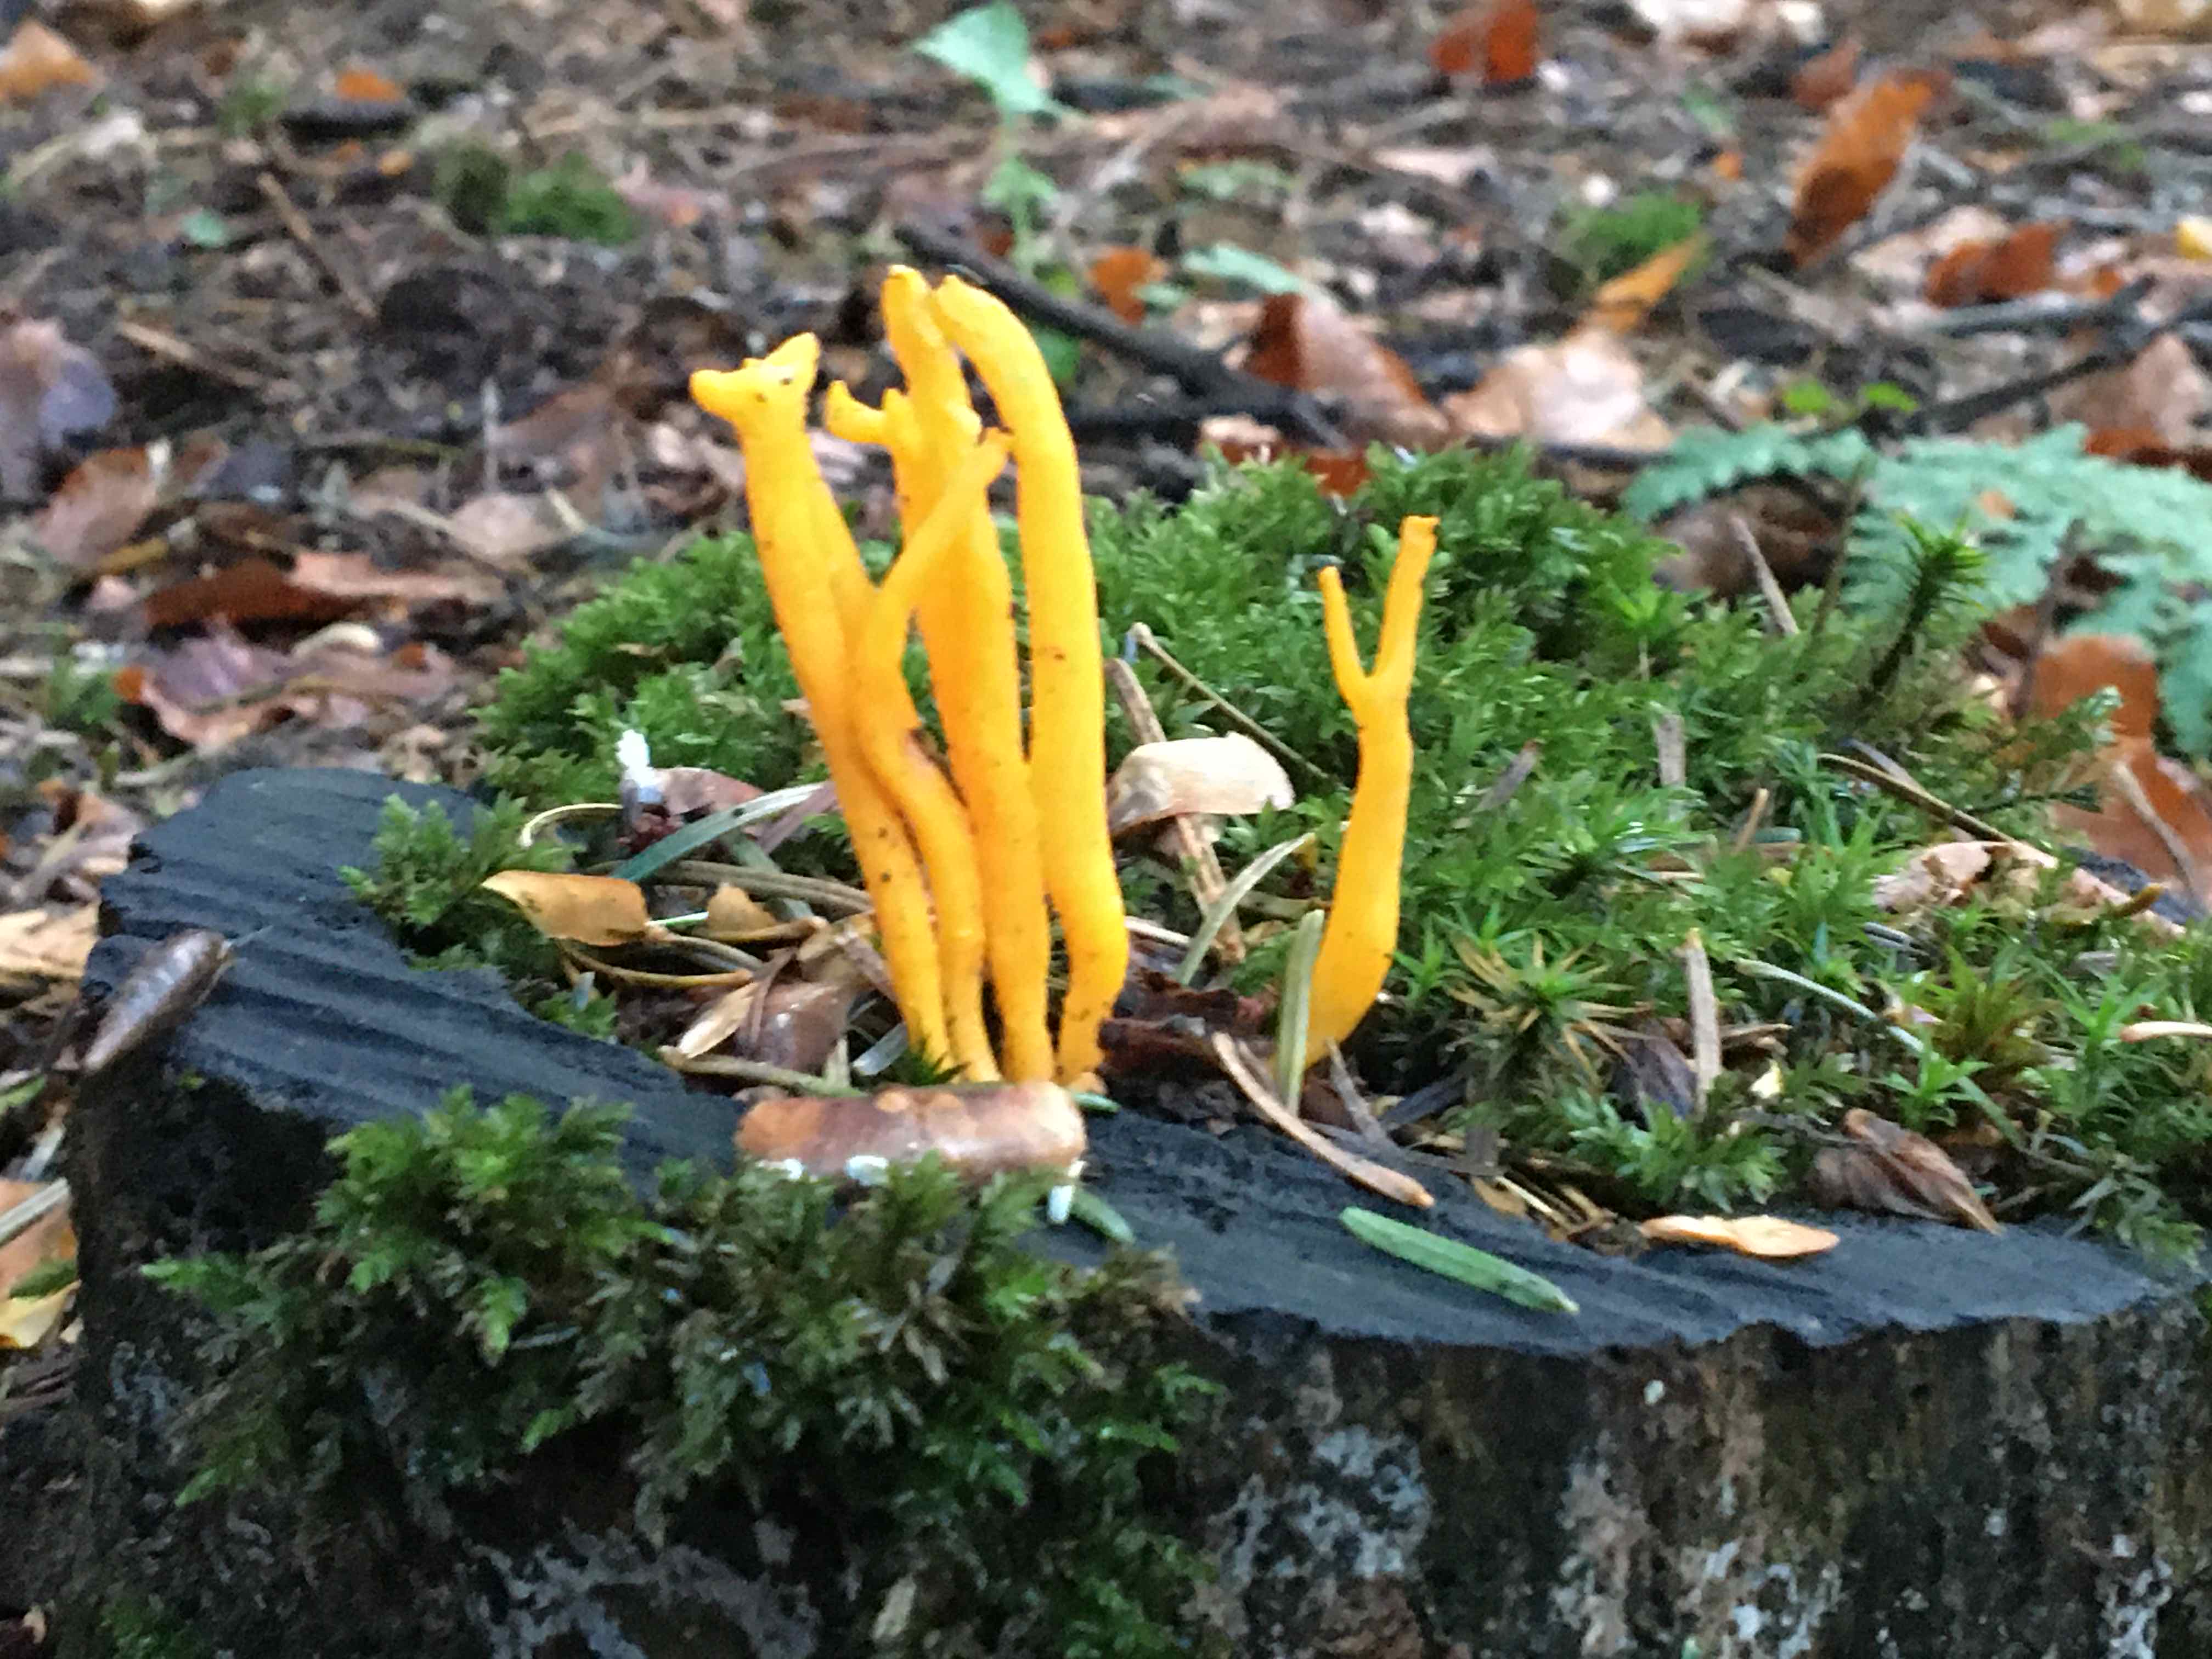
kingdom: Fungi
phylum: Basidiomycota
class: Dacrymycetes
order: Dacrymycetales
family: Dacrymycetaceae
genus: Calocera
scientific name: Calocera viscosa
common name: almindelig guldgaffel
